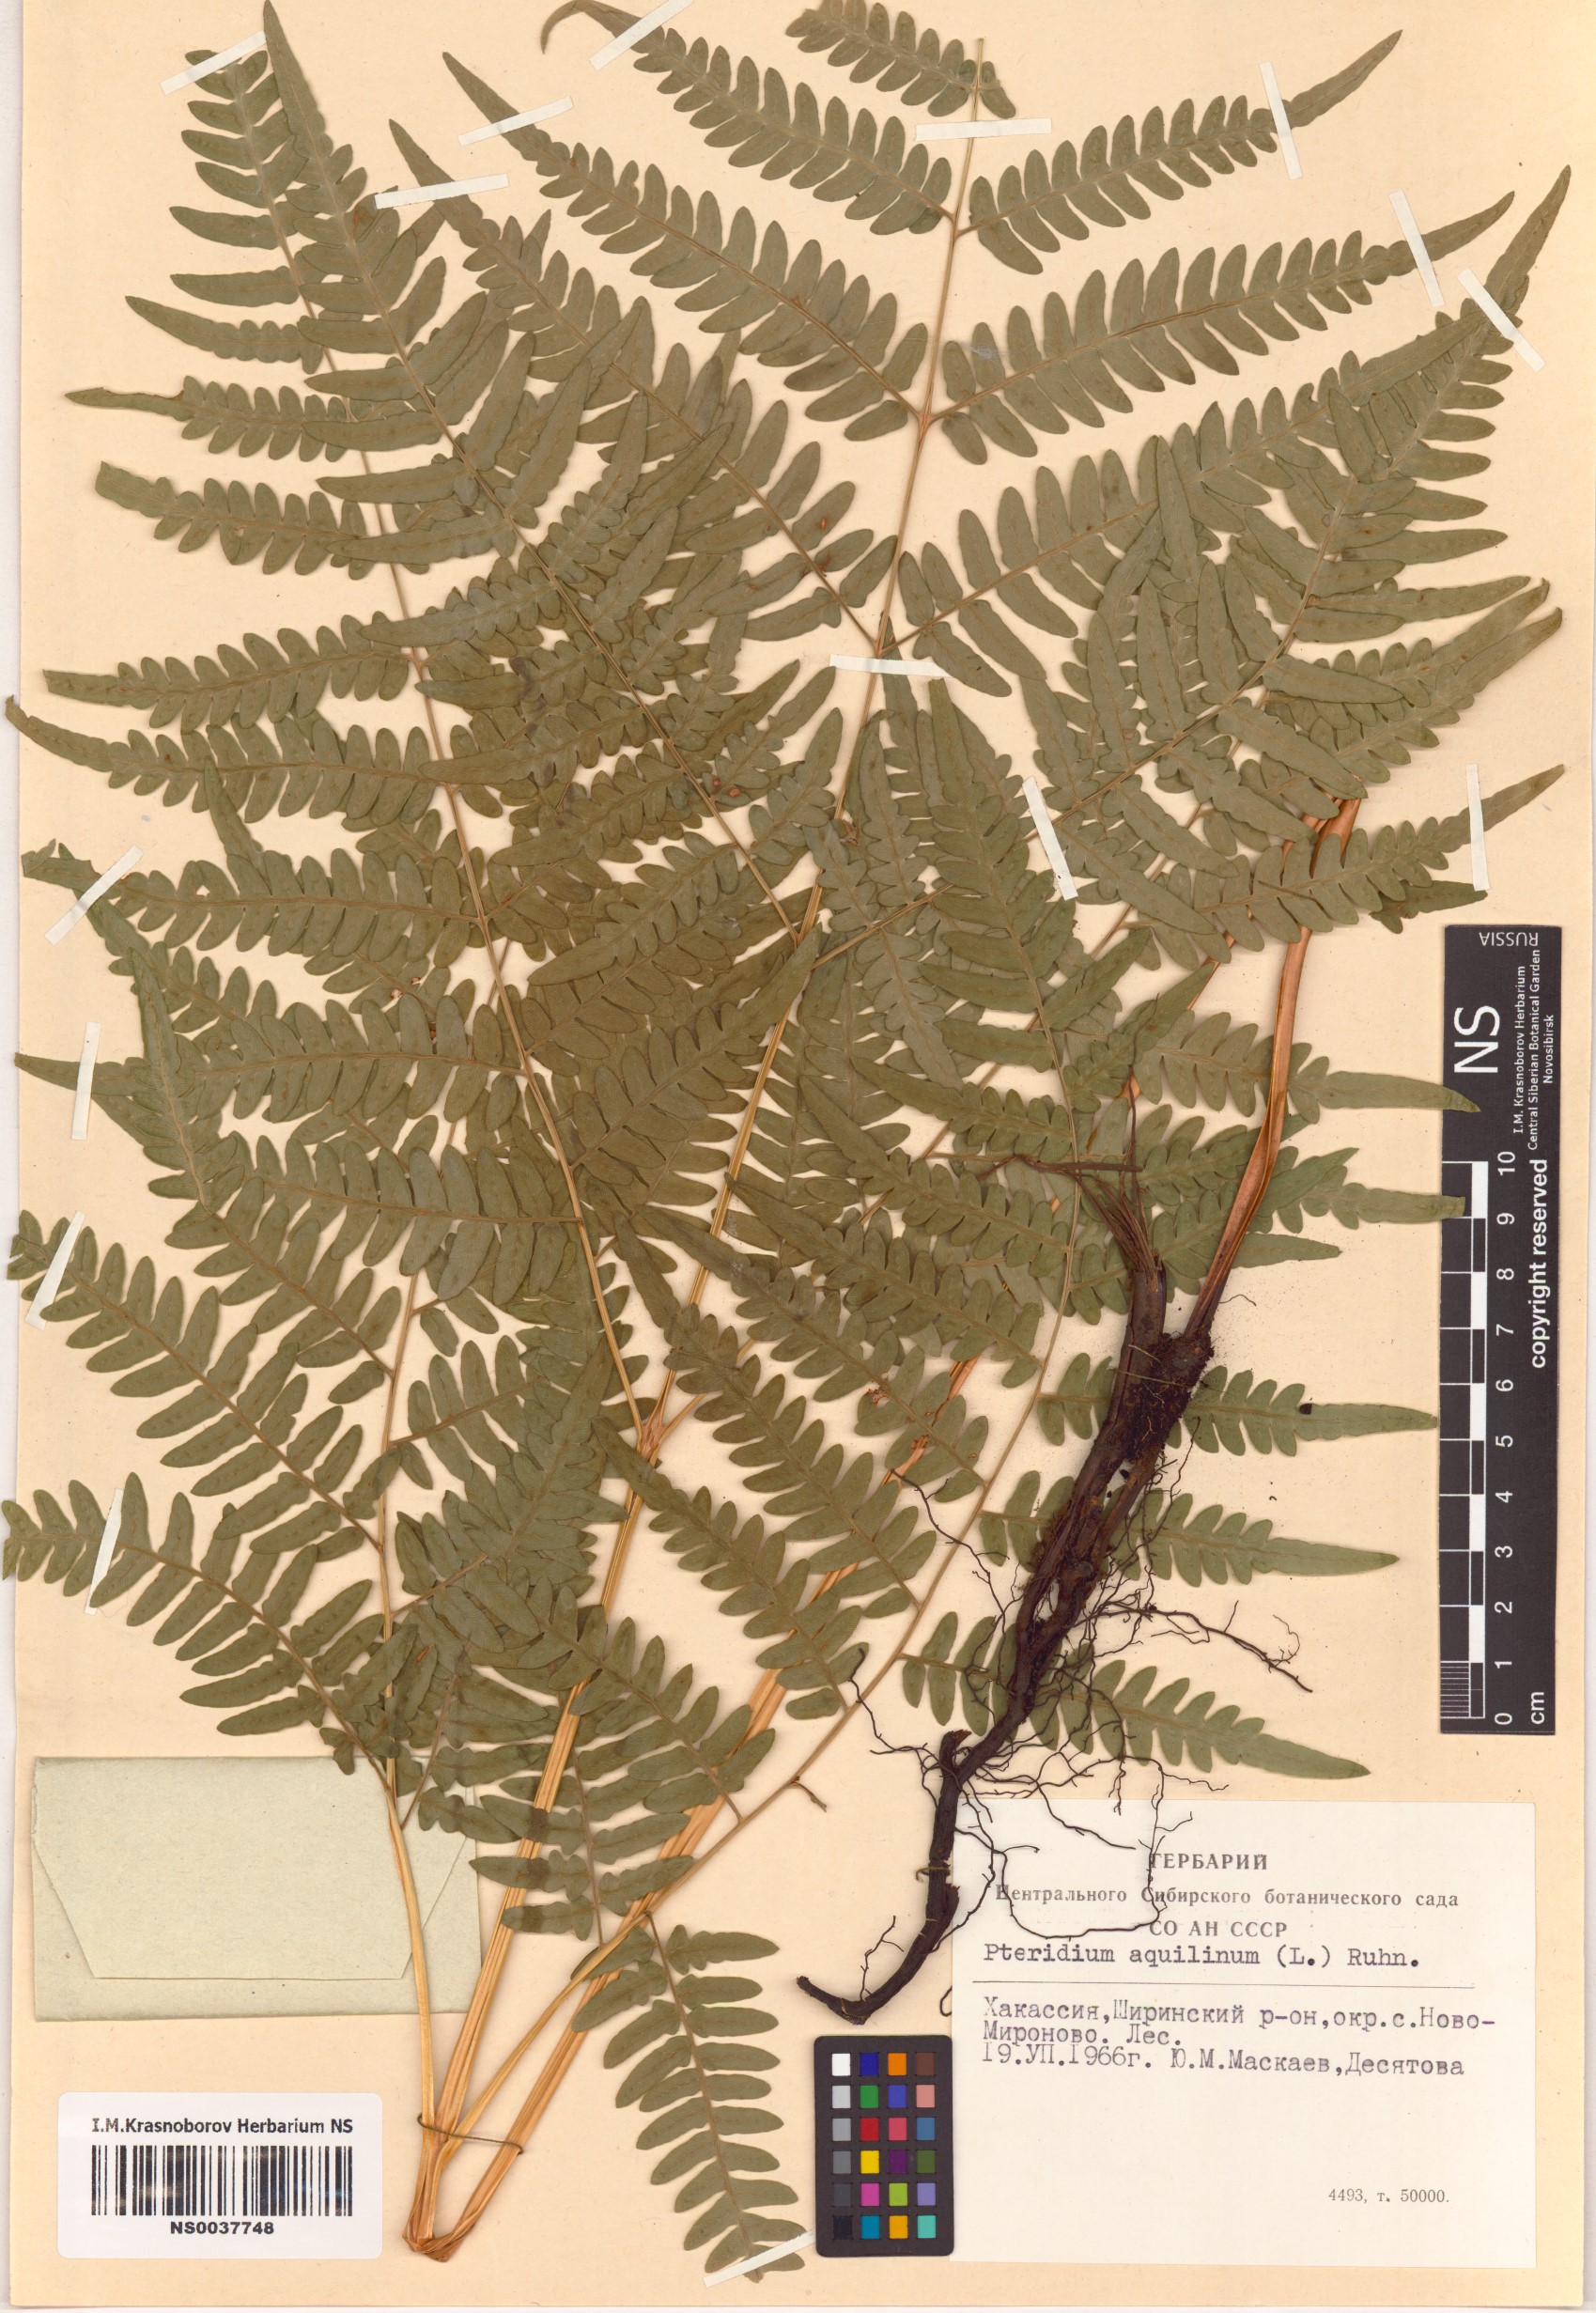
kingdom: Plantae
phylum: Tracheophyta
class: Polypodiopsida
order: Polypodiales
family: Dennstaedtiaceae
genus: Pteridium
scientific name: Pteridium aquilinum
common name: Bracken
